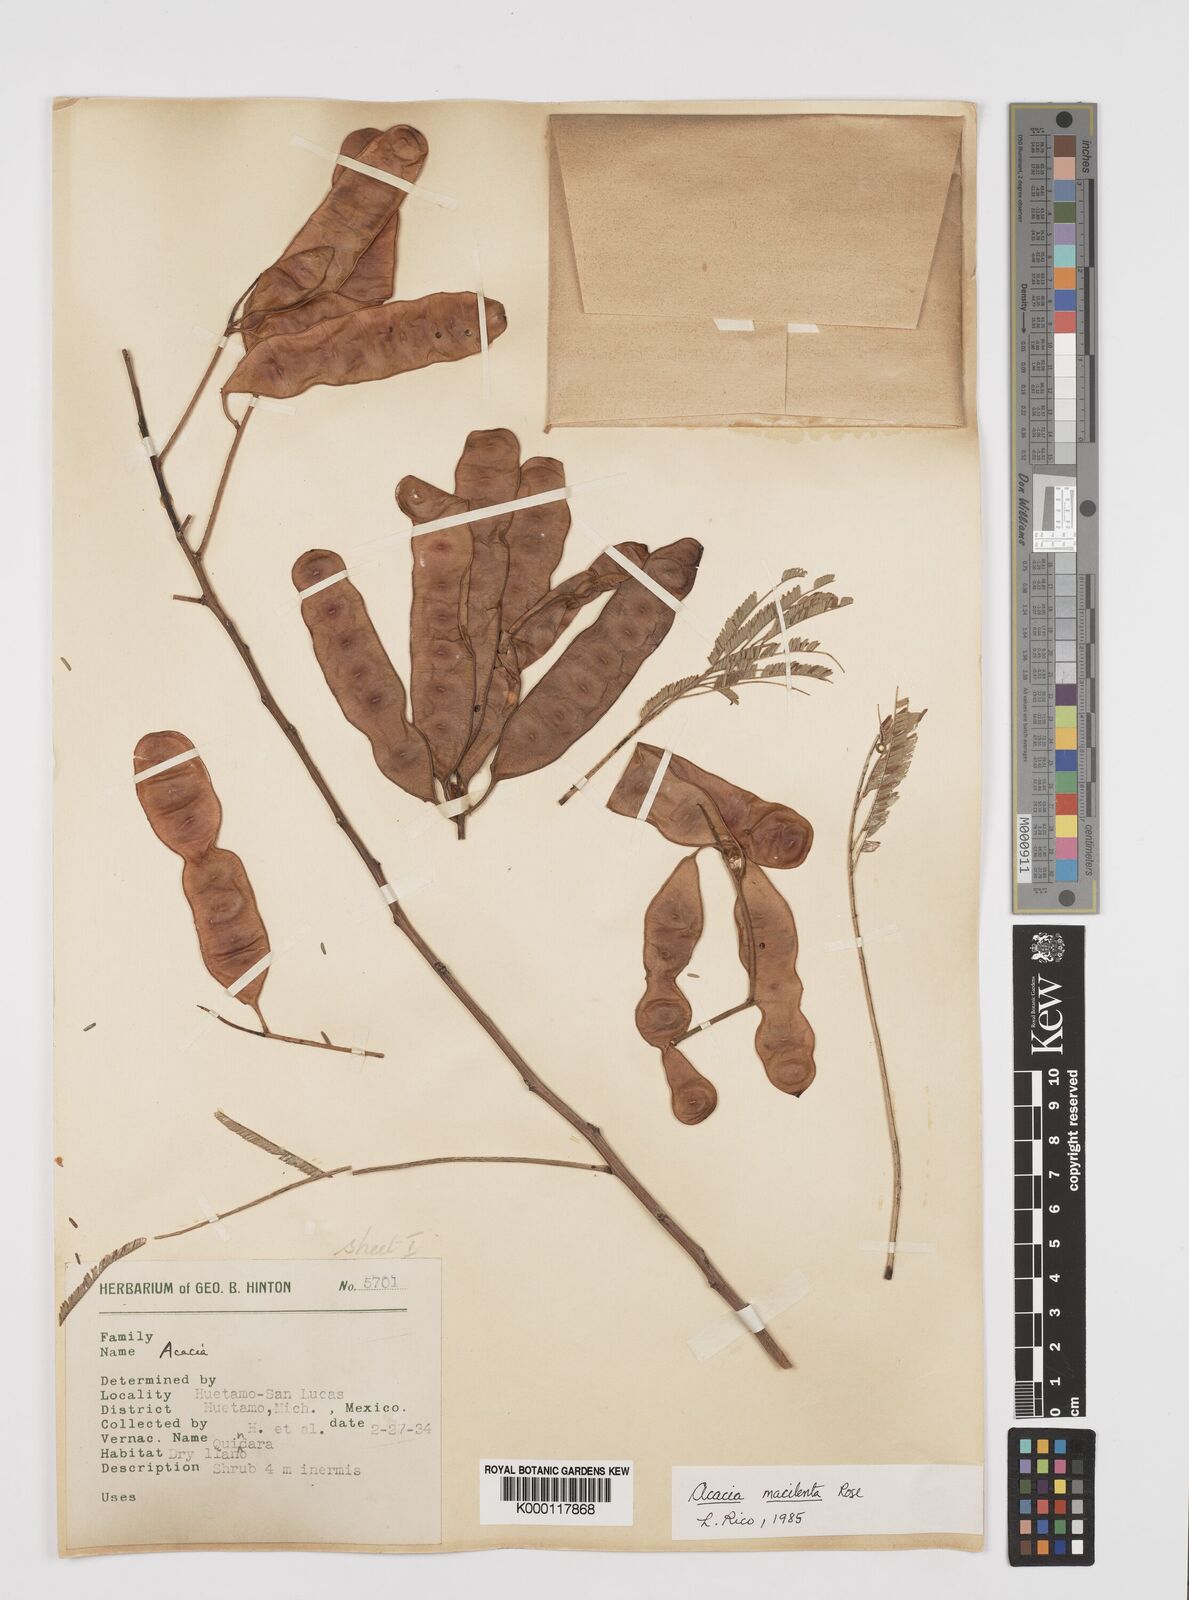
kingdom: Plantae
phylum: Tracheophyta
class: Magnoliopsida
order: Fabales
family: Fabaceae
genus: Senegalia
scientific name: Senegalia macilenta
